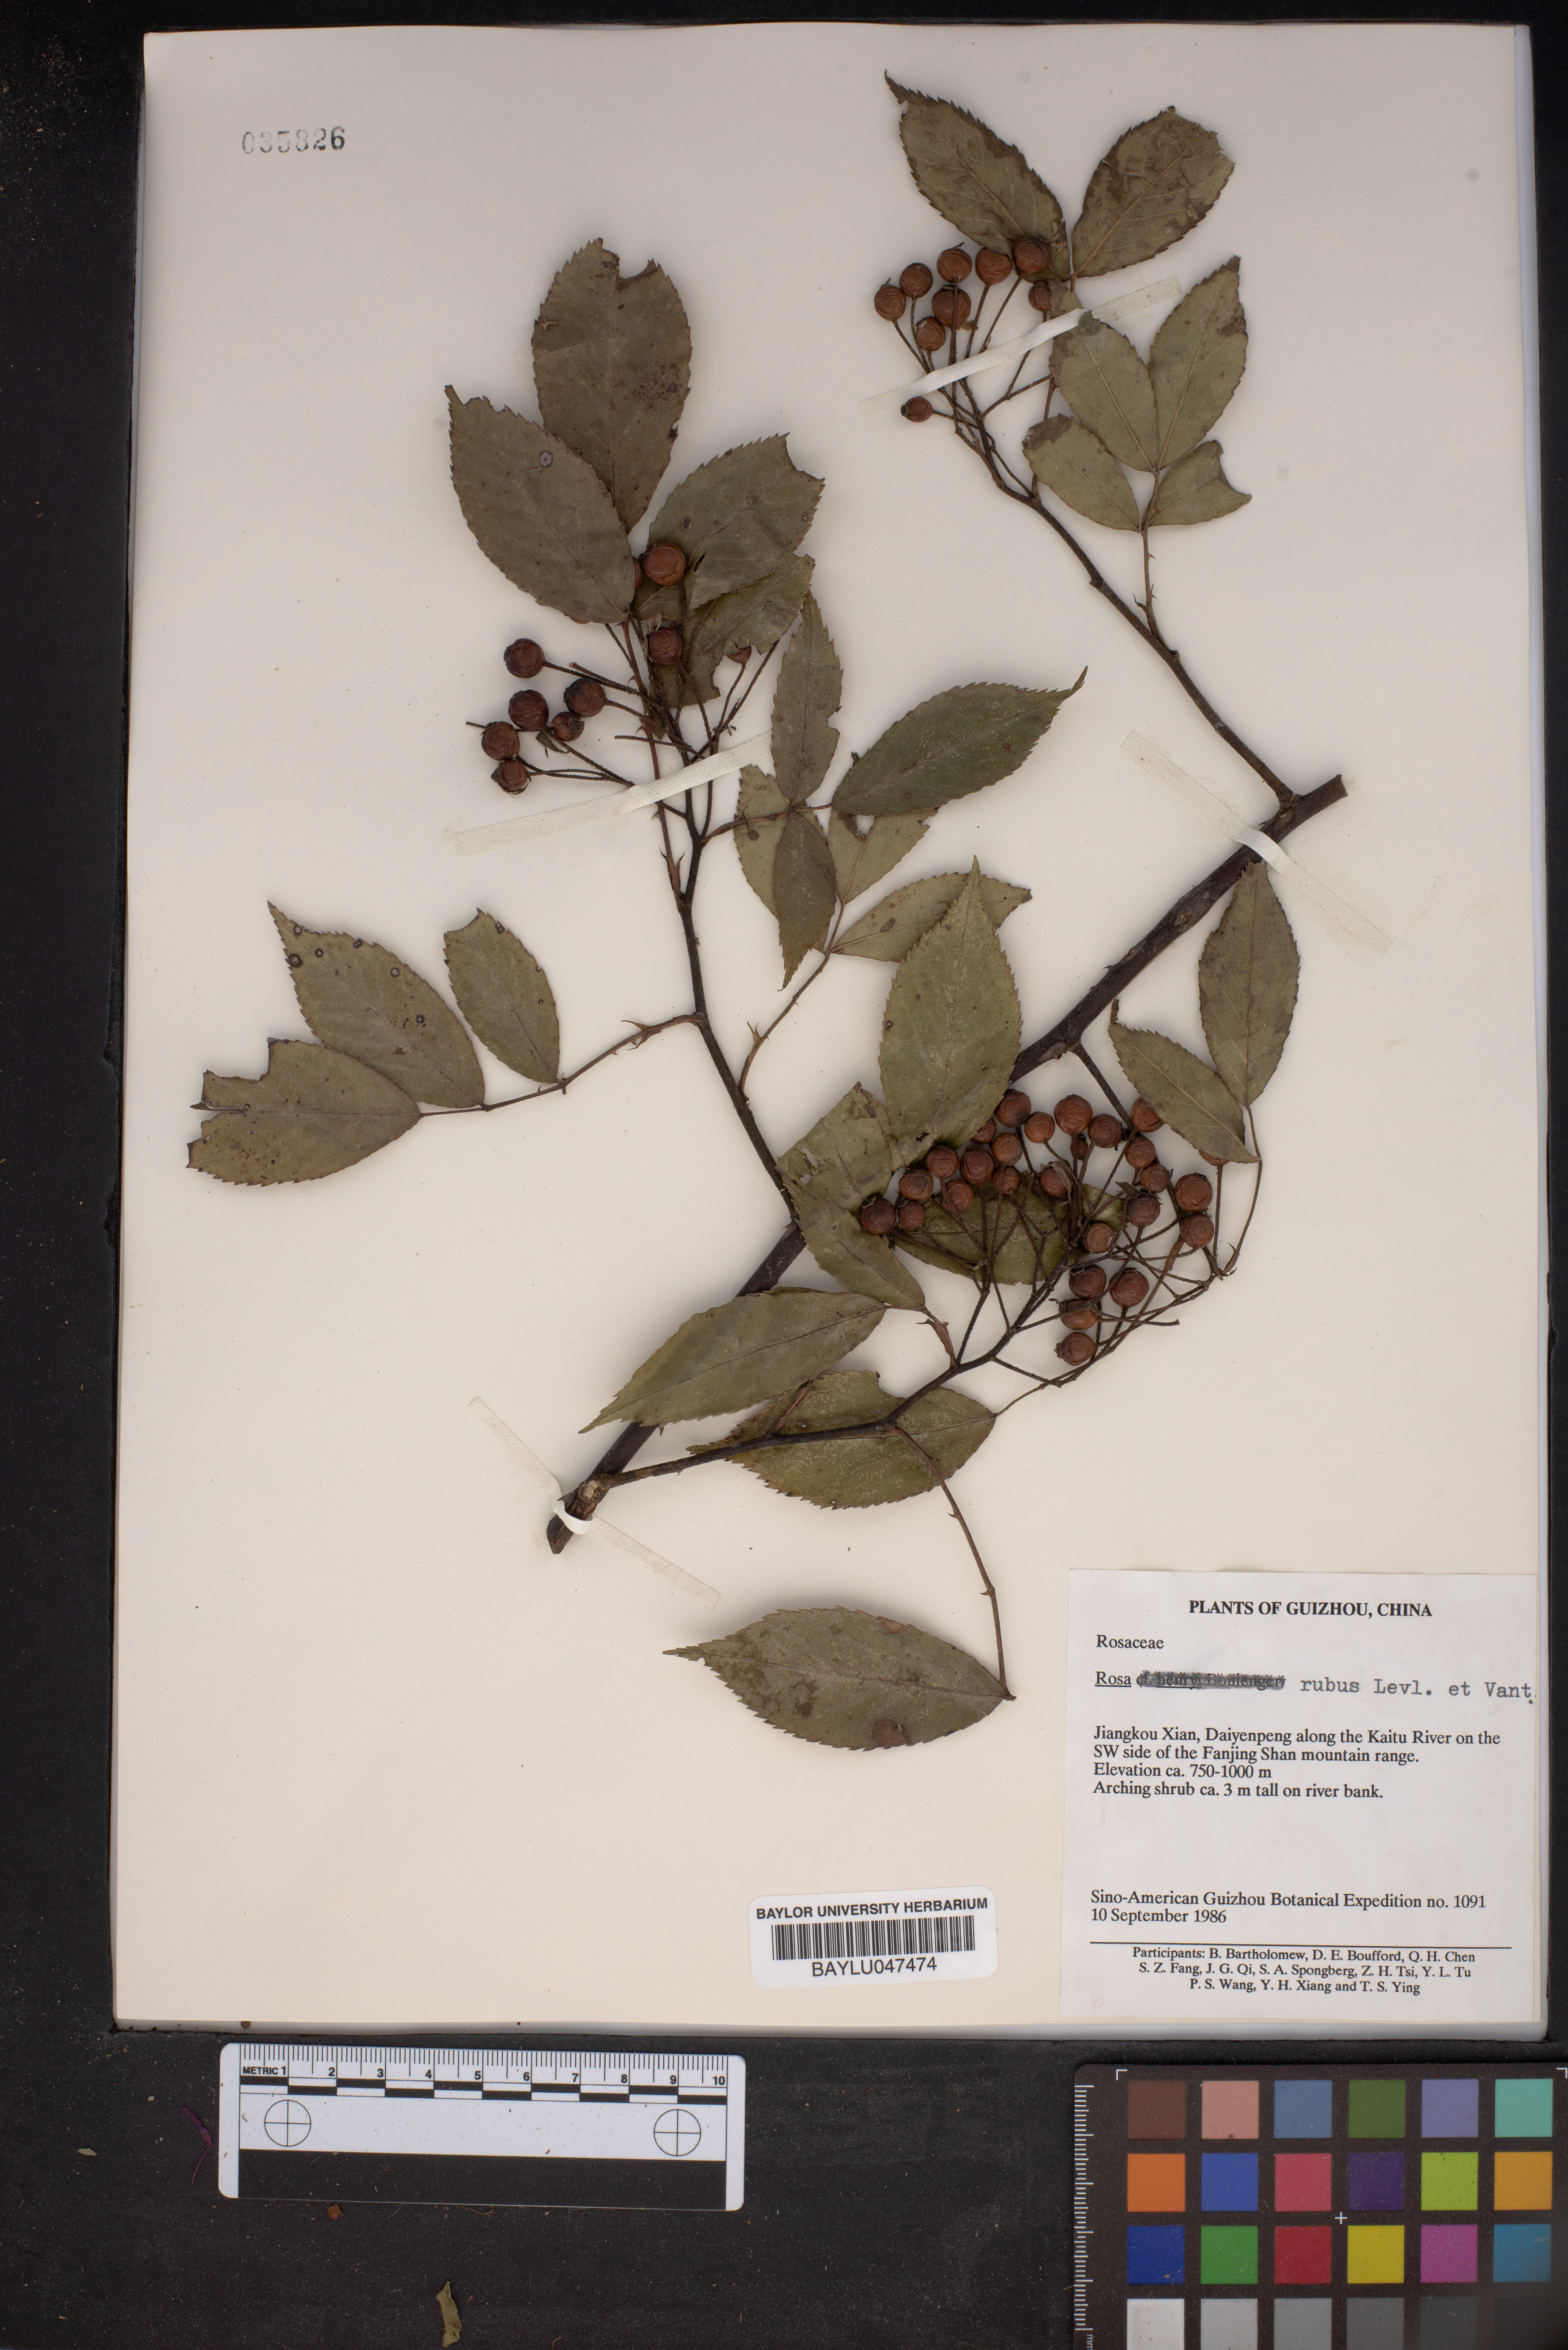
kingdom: Plantae
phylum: Tracheophyta
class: Magnoliopsida
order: Rosales
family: Rosaceae
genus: Rosa
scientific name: Rosa rubus
